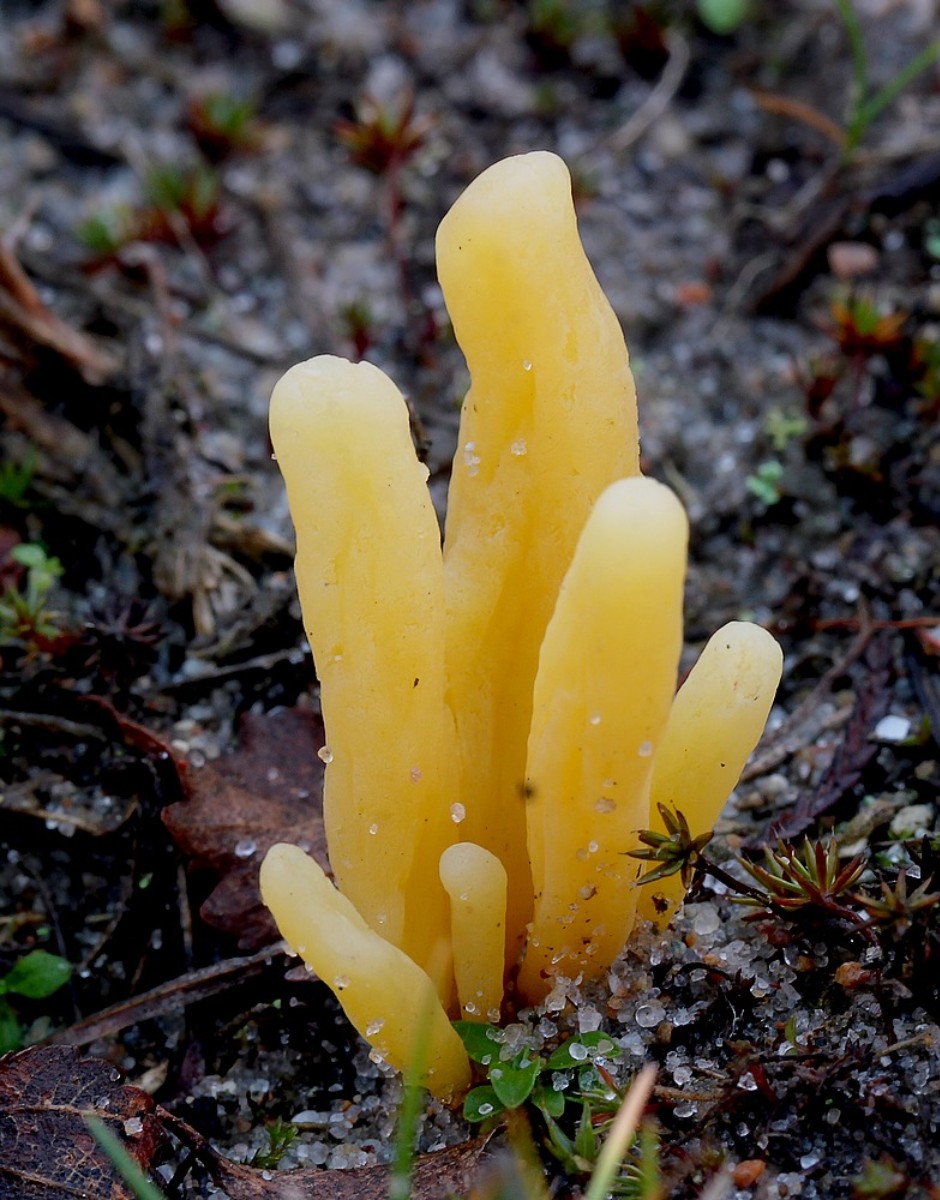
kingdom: Fungi
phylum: Basidiomycota
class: Agaricomycetes
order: Agaricales
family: Clavariaceae
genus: Clavaria
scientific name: Clavaria argillacea
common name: lerfarvet køllesvamp
